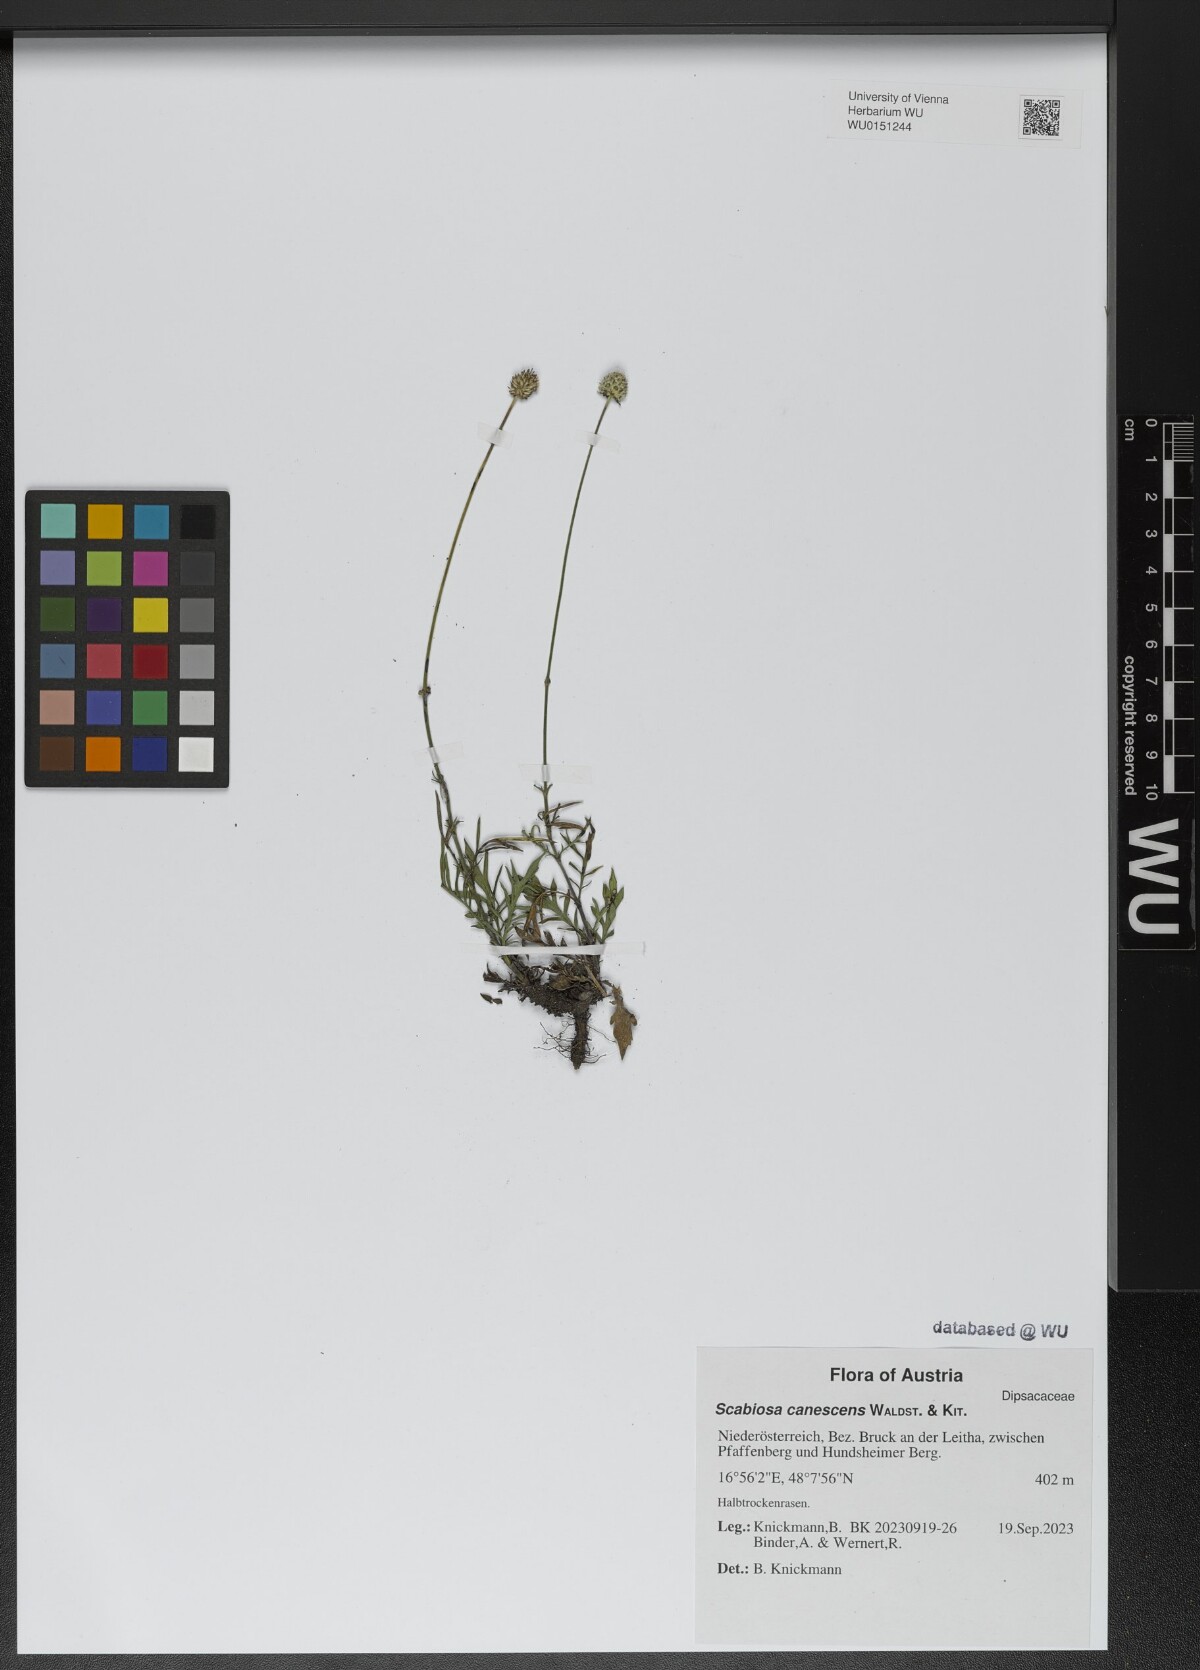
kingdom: Plantae
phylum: Tracheophyta
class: Magnoliopsida
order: Dipsacales
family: Caprifoliaceae
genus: Scabiosa
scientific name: Scabiosa canescens
